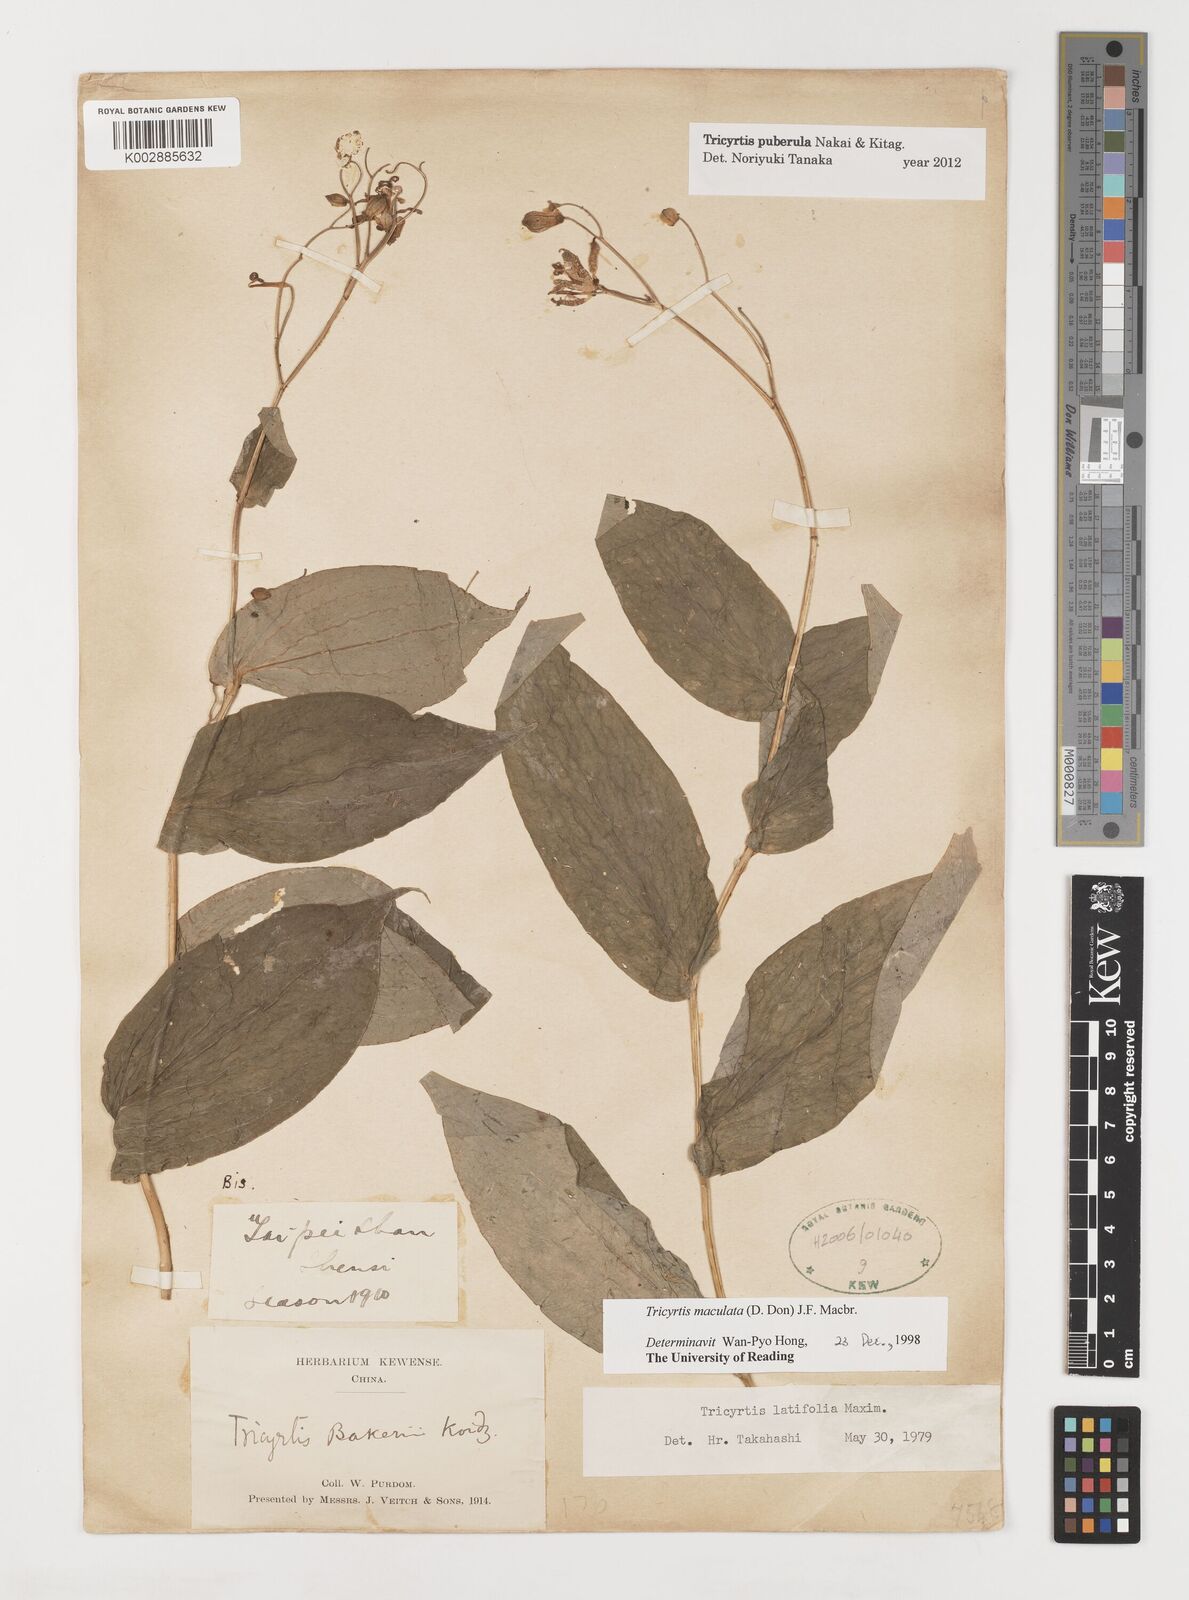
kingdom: Plantae
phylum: Tracheophyta
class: Liliopsida
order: Liliales
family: Liliaceae
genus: Tricyrtis
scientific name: Tricyrtis maculata
